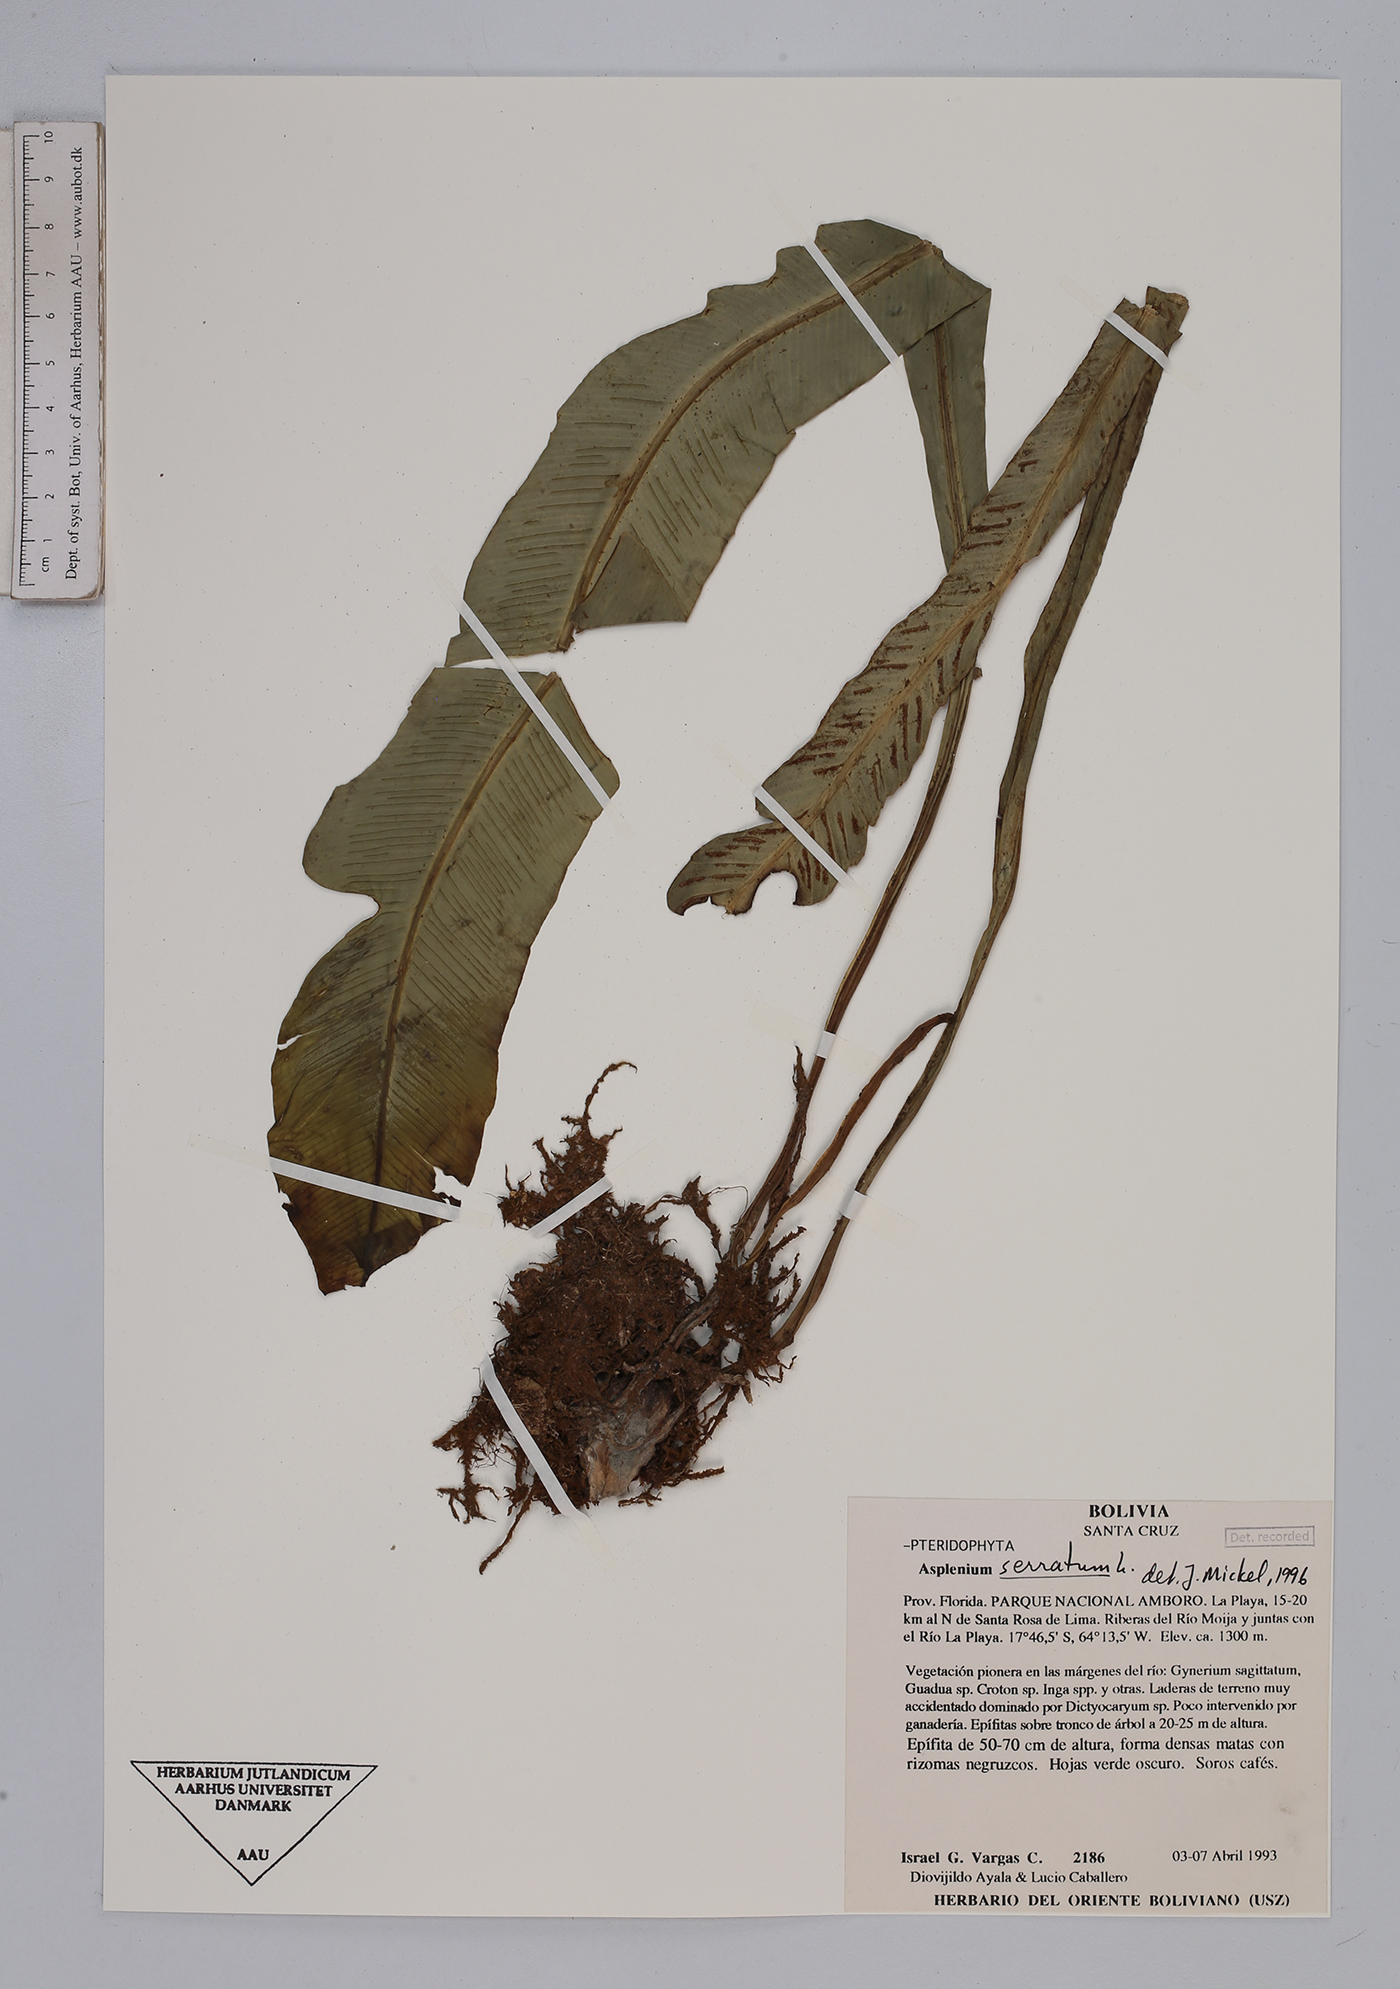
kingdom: Plantae
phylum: Tracheophyta
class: Polypodiopsida
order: Polypodiales
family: Aspleniaceae
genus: Asplenium
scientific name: Asplenium serratum
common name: Wild birdnest fern
